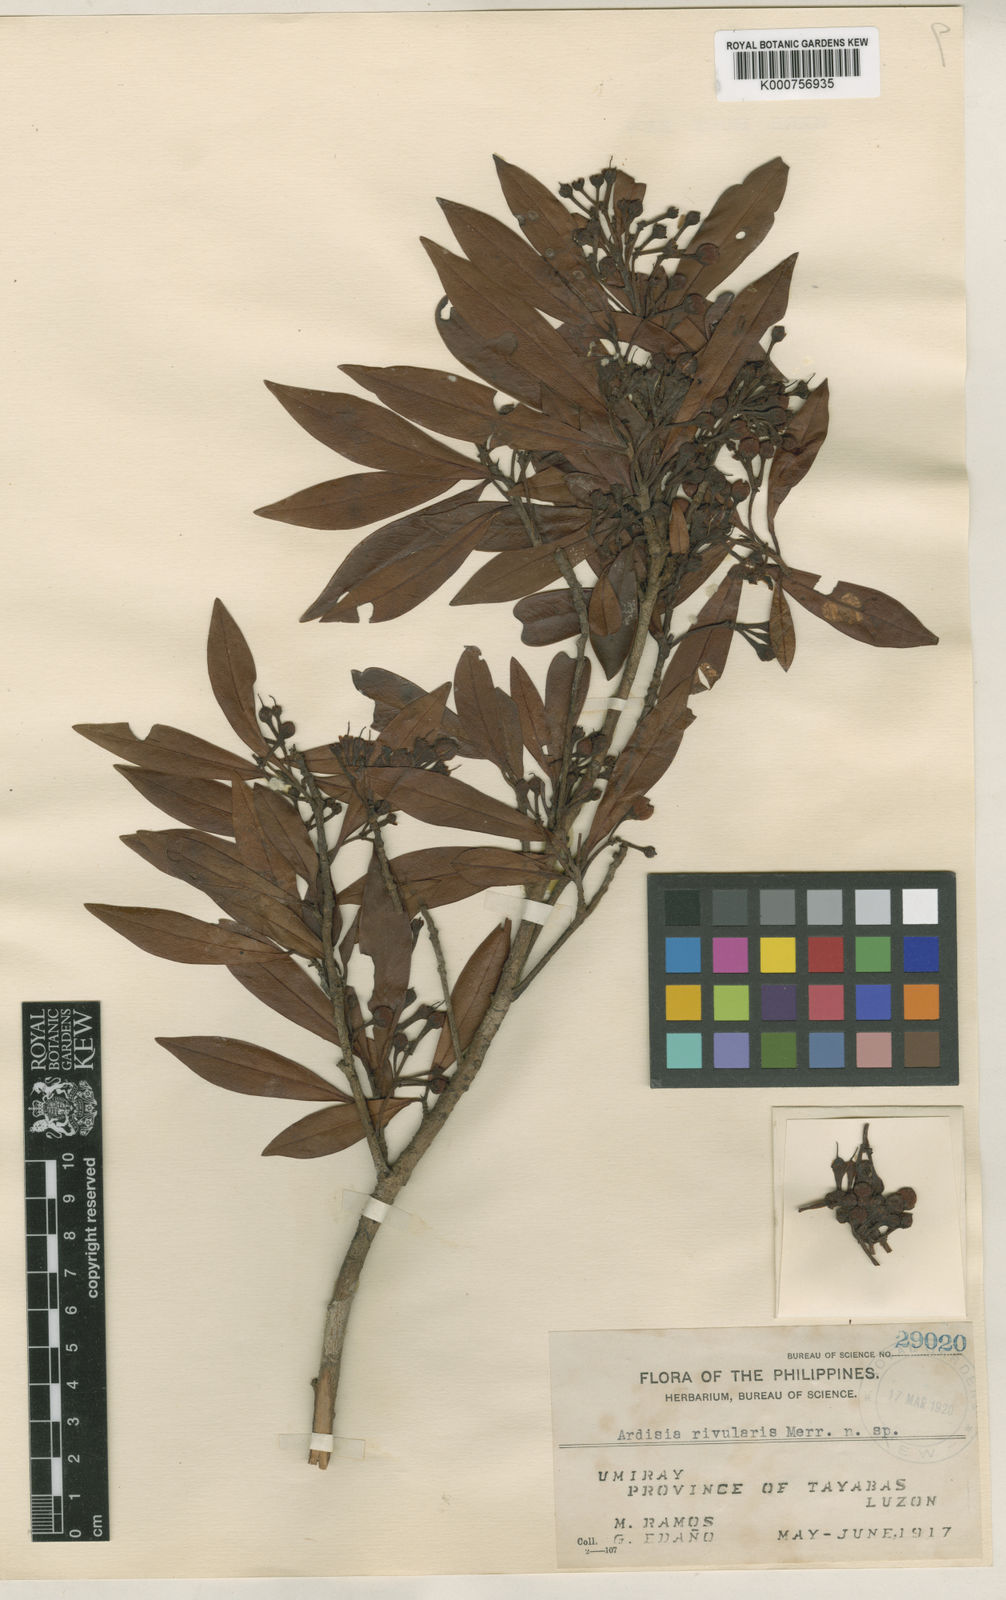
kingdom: Plantae
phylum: Tracheophyta
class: Magnoliopsida
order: Ericales
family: Primulaceae
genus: Ardisia
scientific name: Ardisia rivularis
